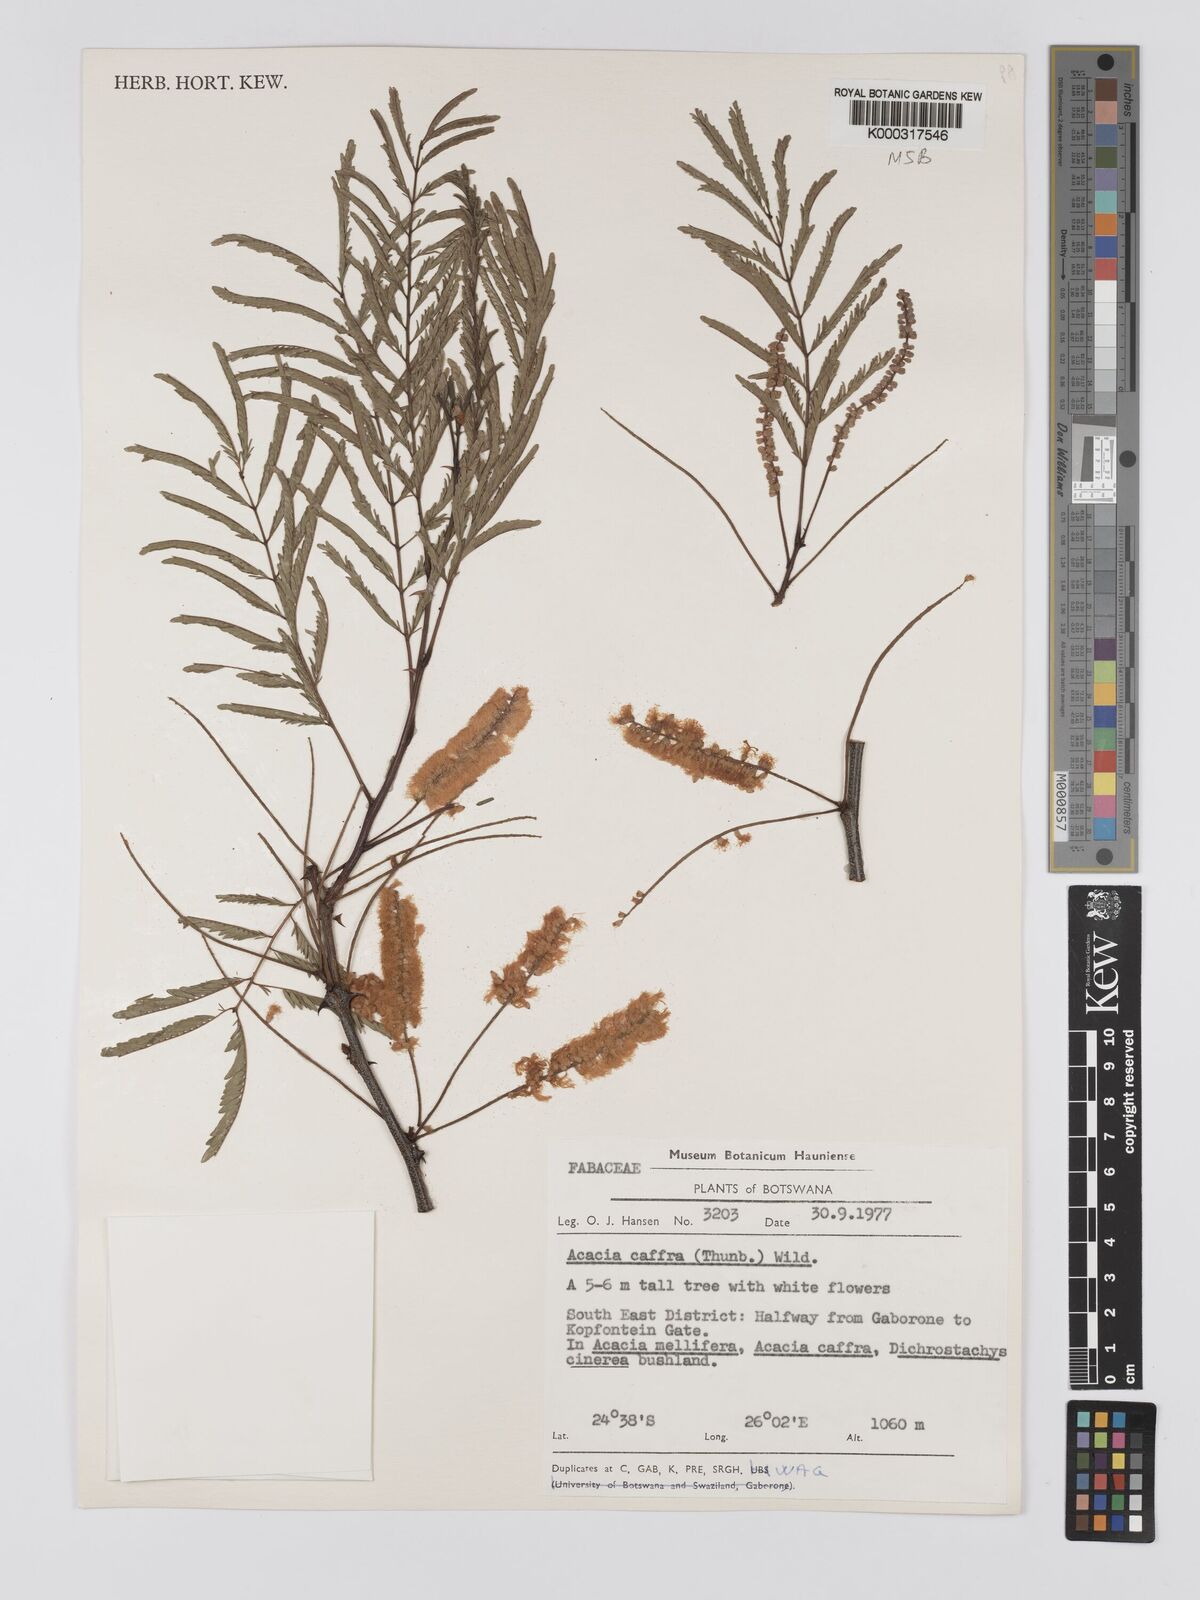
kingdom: Plantae
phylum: Tracheophyta
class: Magnoliopsida
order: Fabales
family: Fabaceae
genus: Senegalia
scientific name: Senegalia caffra
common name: Cat thorn
